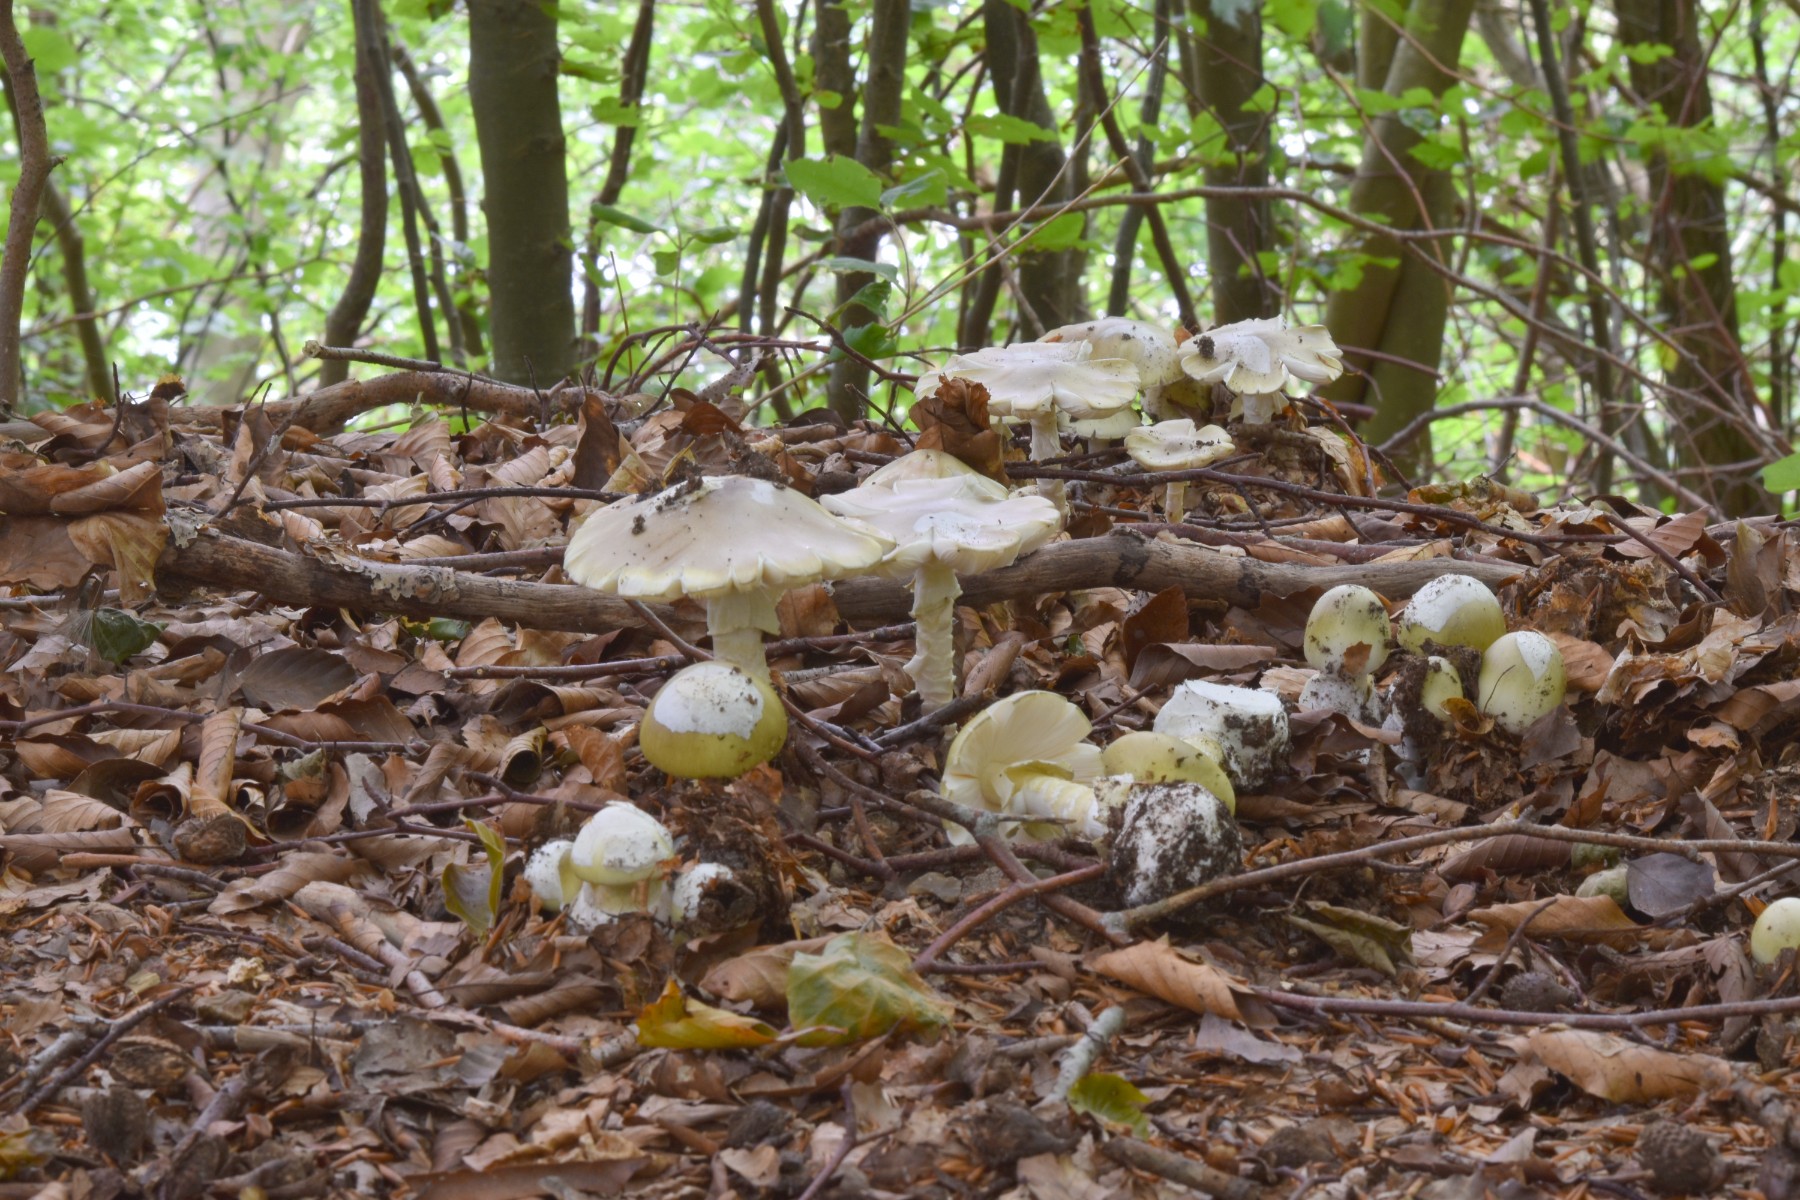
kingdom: Fungi
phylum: Basidiomycota
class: Agaricomycetes
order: Agaricales
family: Amanitaceae
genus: Amanita
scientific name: Amanita phalloides
